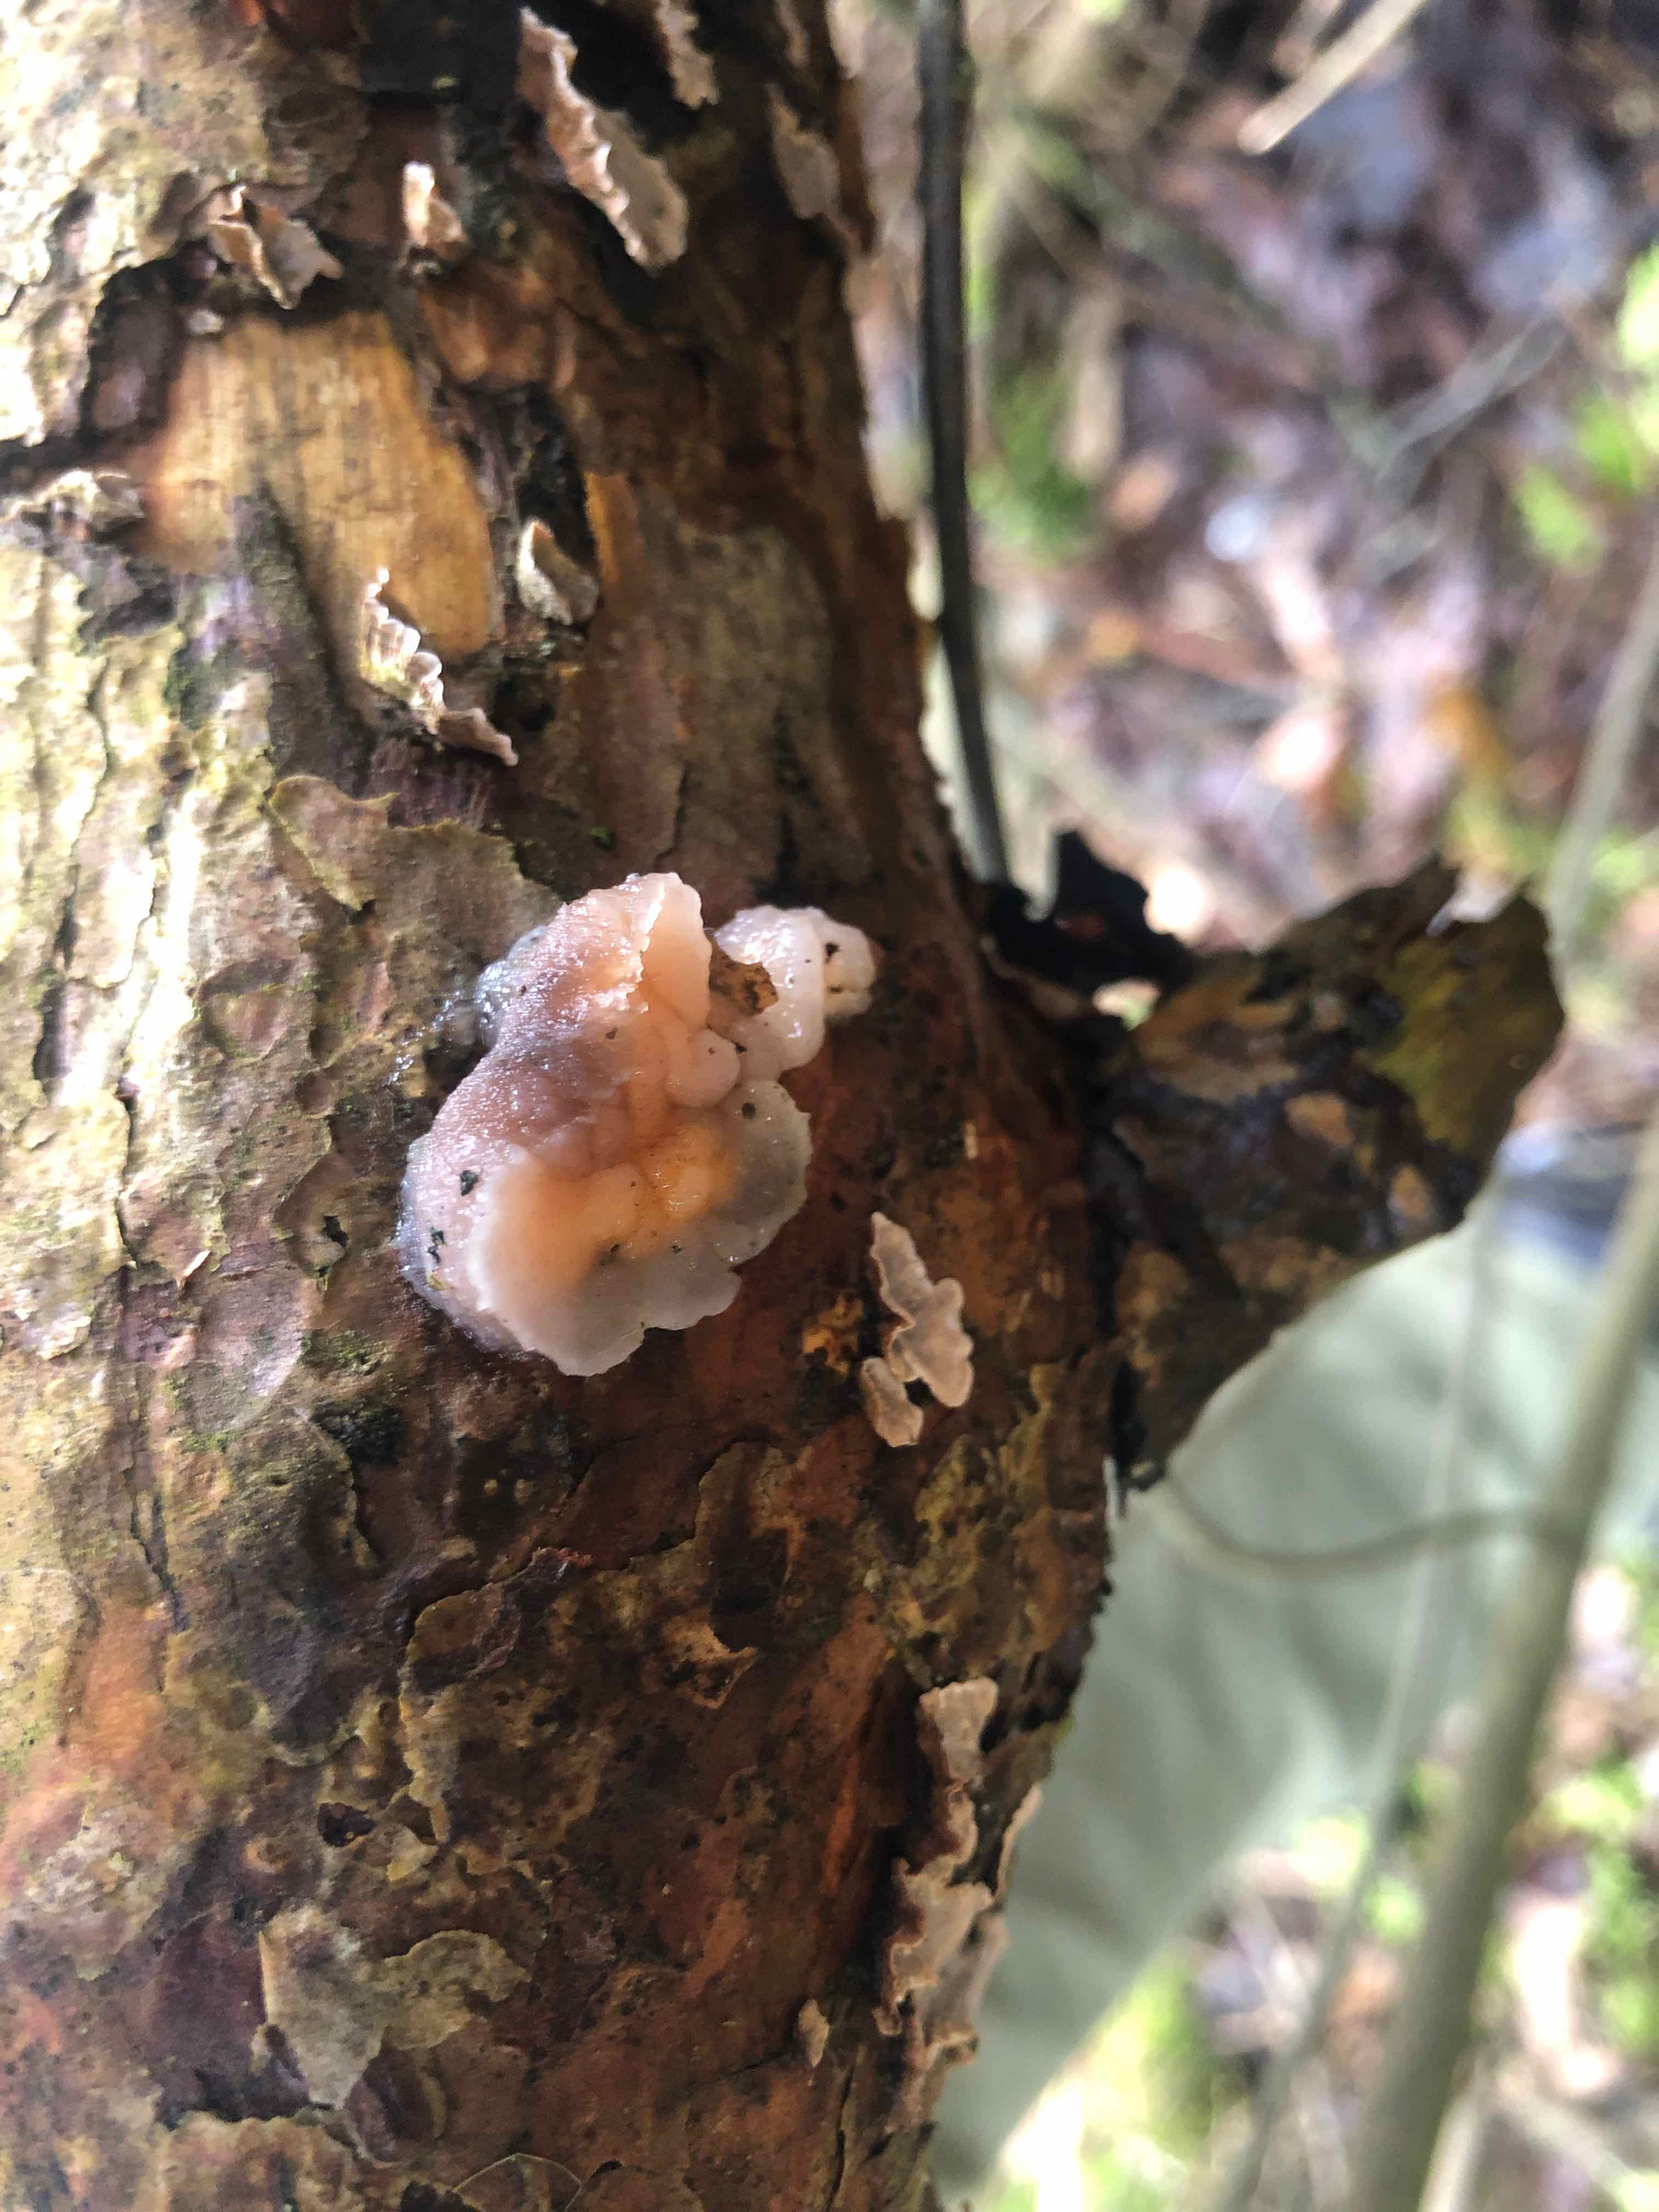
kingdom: Fungi
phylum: Basidiomycota
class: Tremellomycetes
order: Tremellales
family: Naemateliaceae
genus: Naematelia
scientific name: Naematelia encephala
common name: fyrre-bævresvamp
